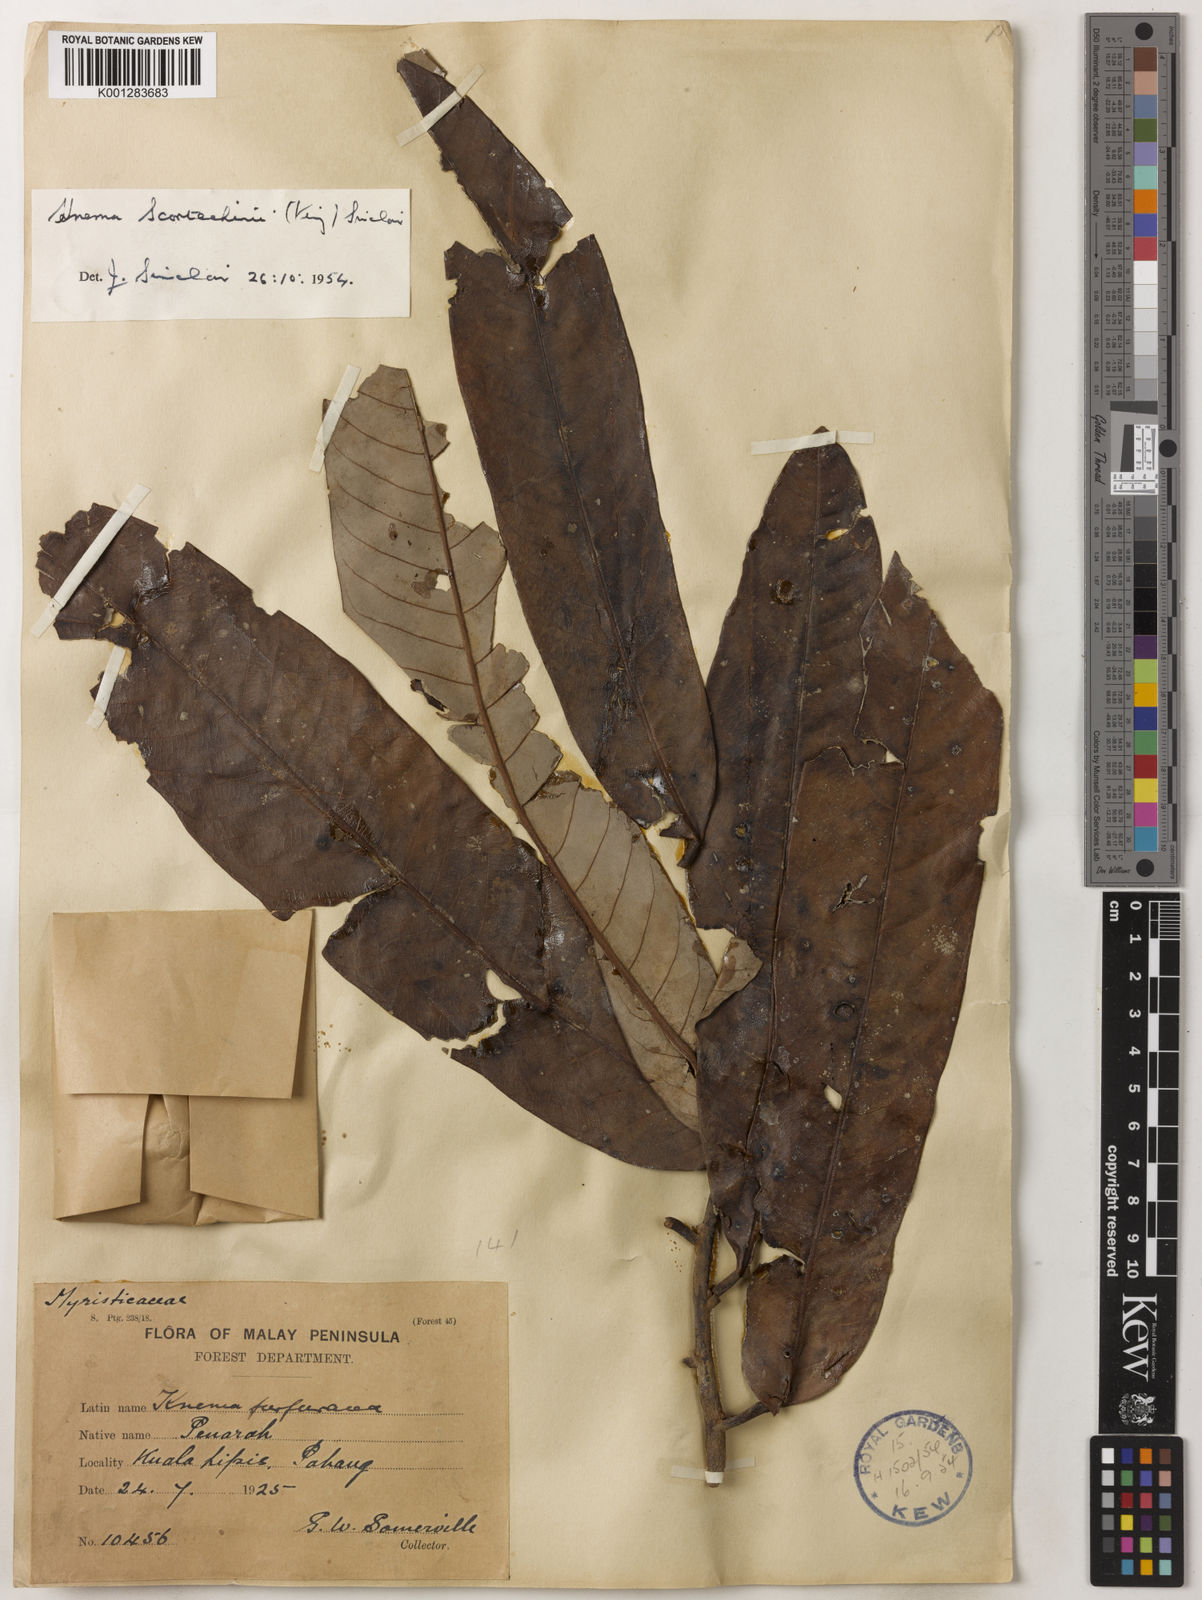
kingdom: Plantae
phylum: Tracheophyta
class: Magnoliopsida
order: Magnoliales
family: Myristicaceae
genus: Knema
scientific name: Knema scortechinii
